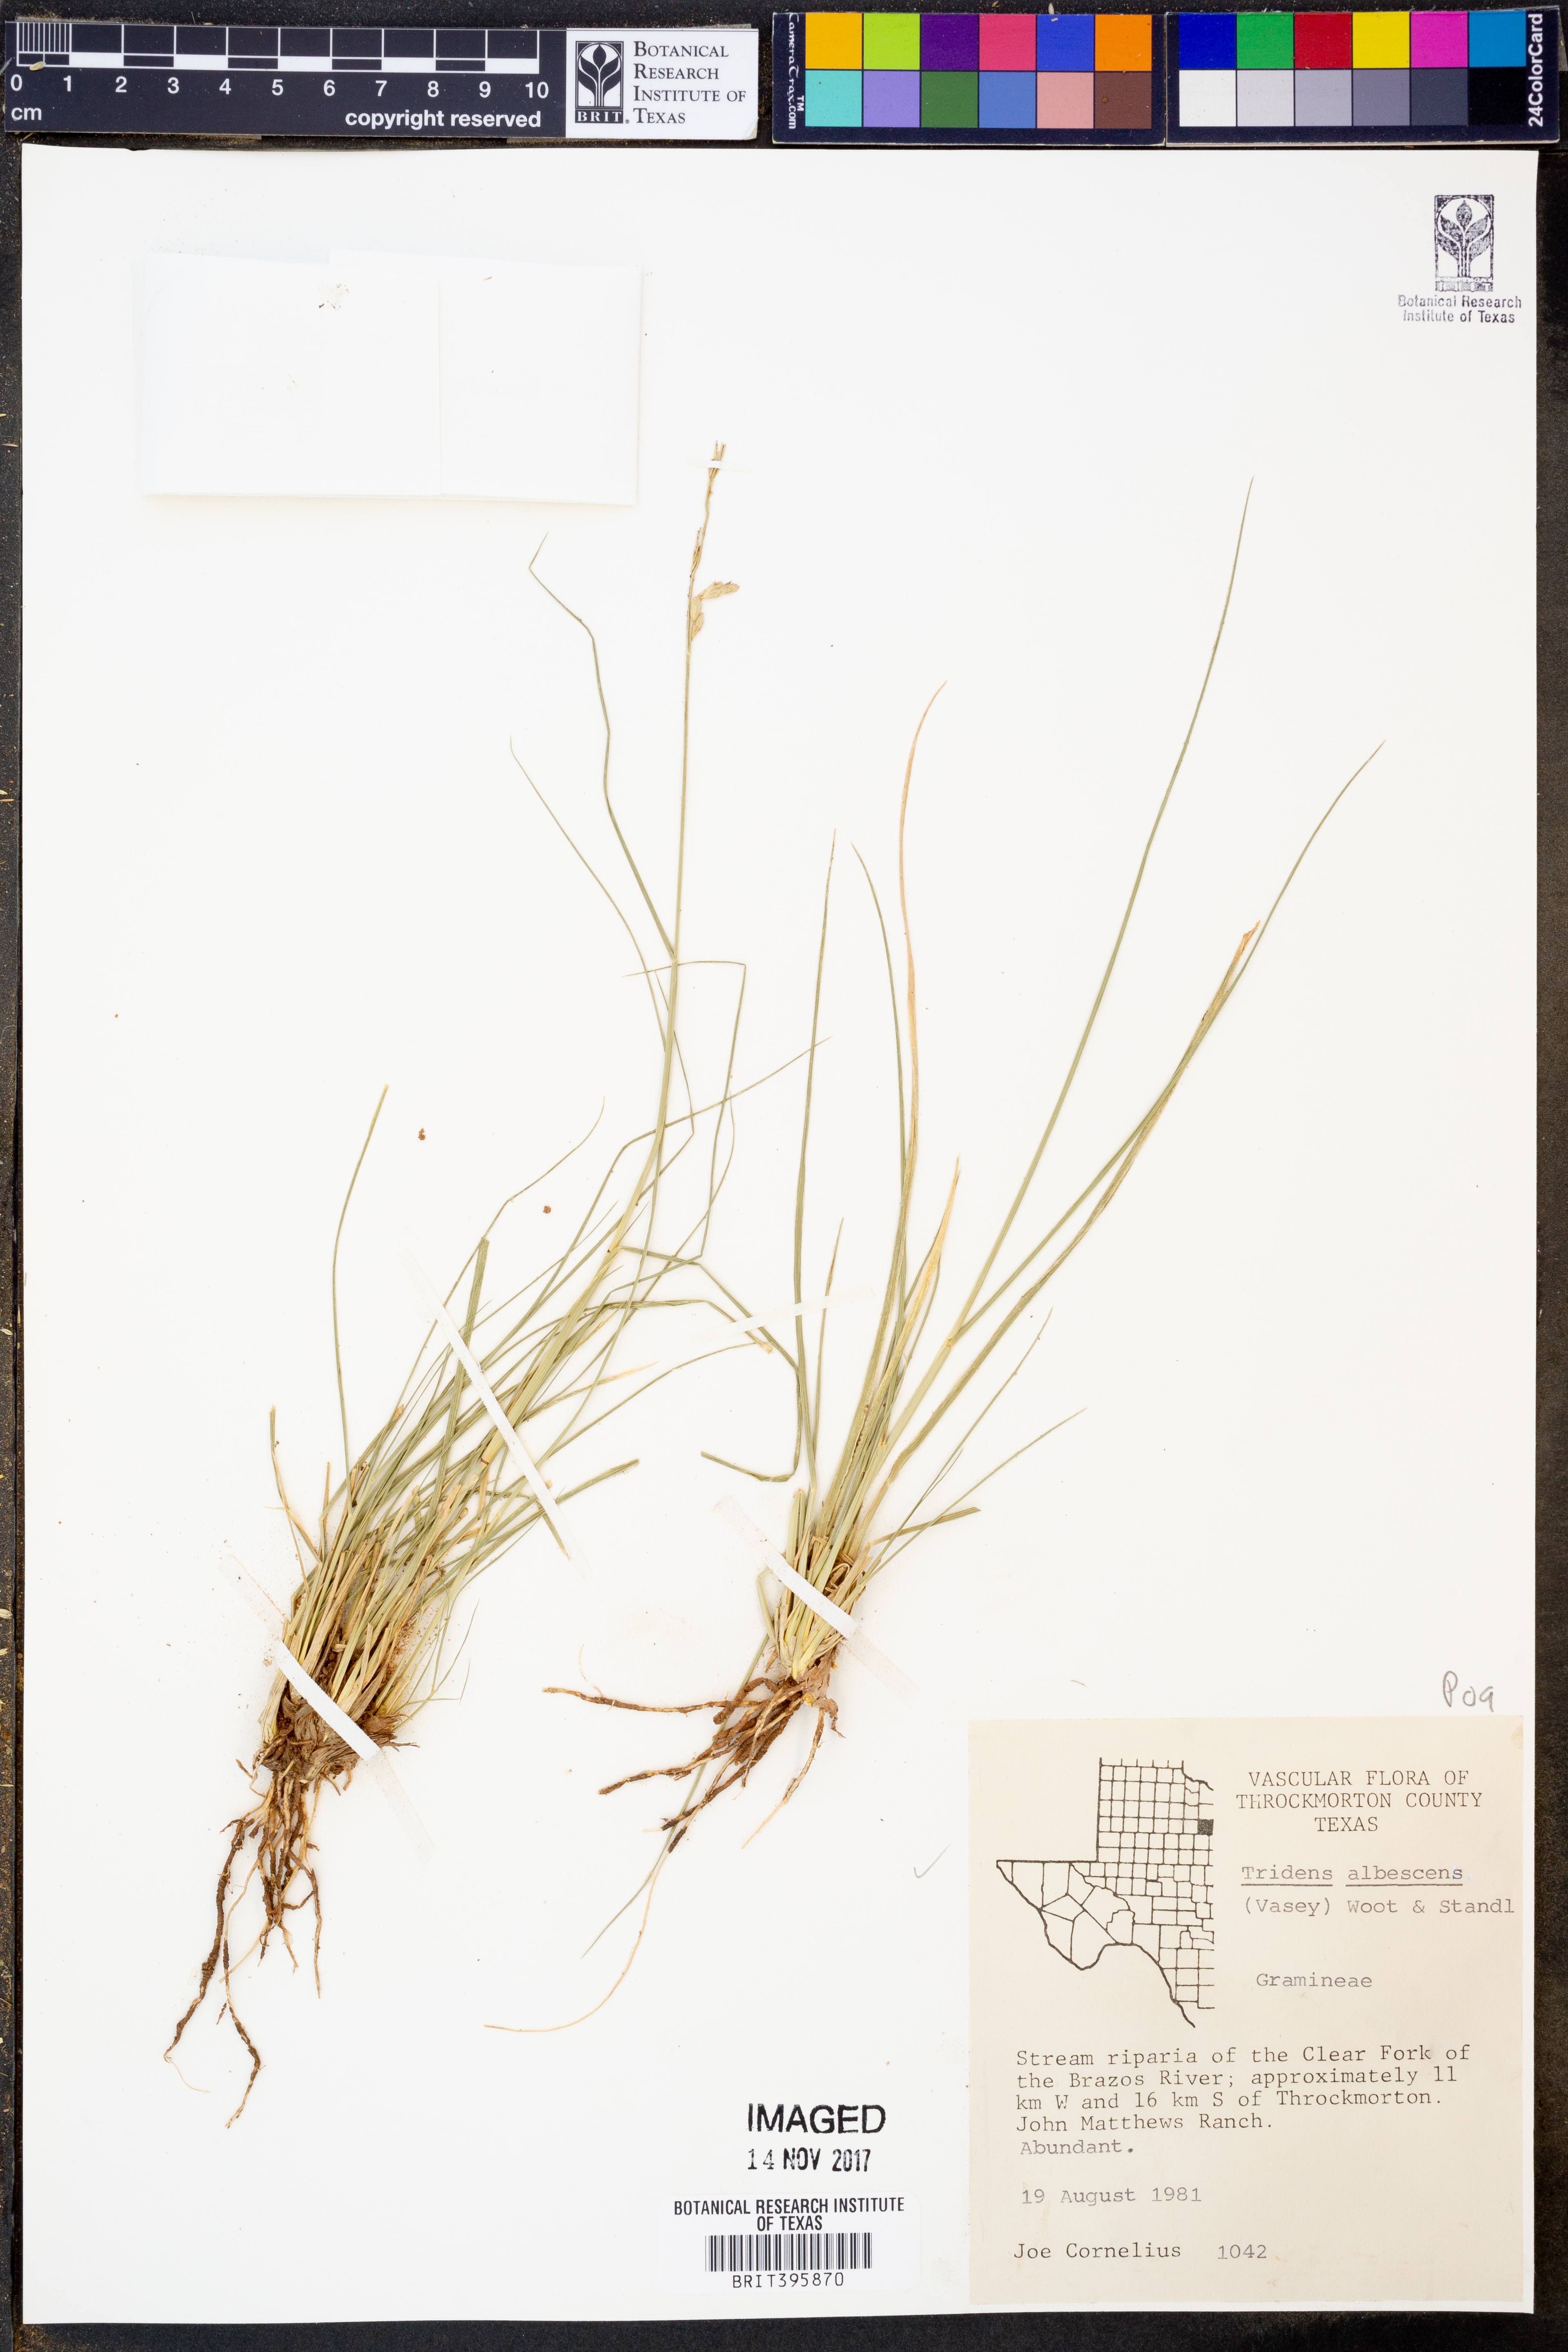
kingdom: Plantae
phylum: Tracheophyta
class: Liliopsida
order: Poales
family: Poaceae
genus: Tridens
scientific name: Tridens albescens
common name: White tridens
